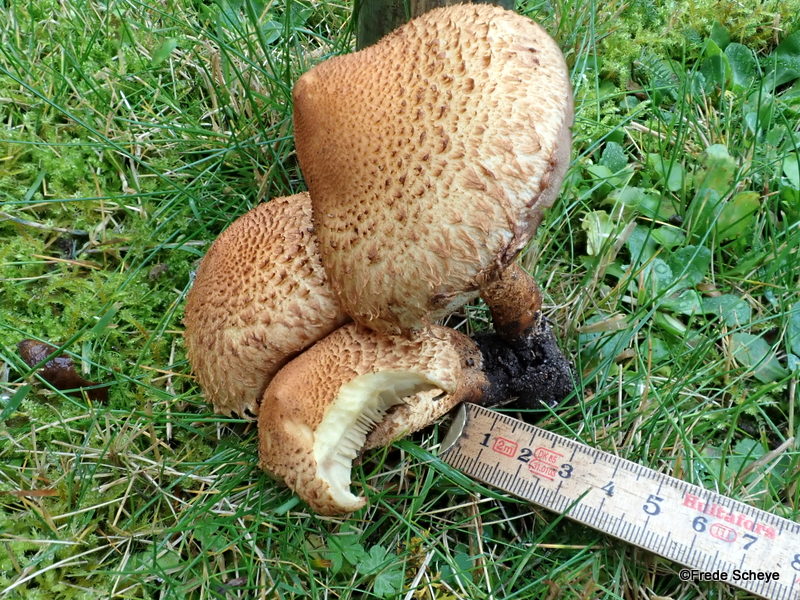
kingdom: Fungi
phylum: Basidiomycota
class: Agaricomycetes
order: Agaricales
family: Strophariaceae
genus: Pholiota
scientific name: Pholiota squarrosa
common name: krumskællet skælhat
